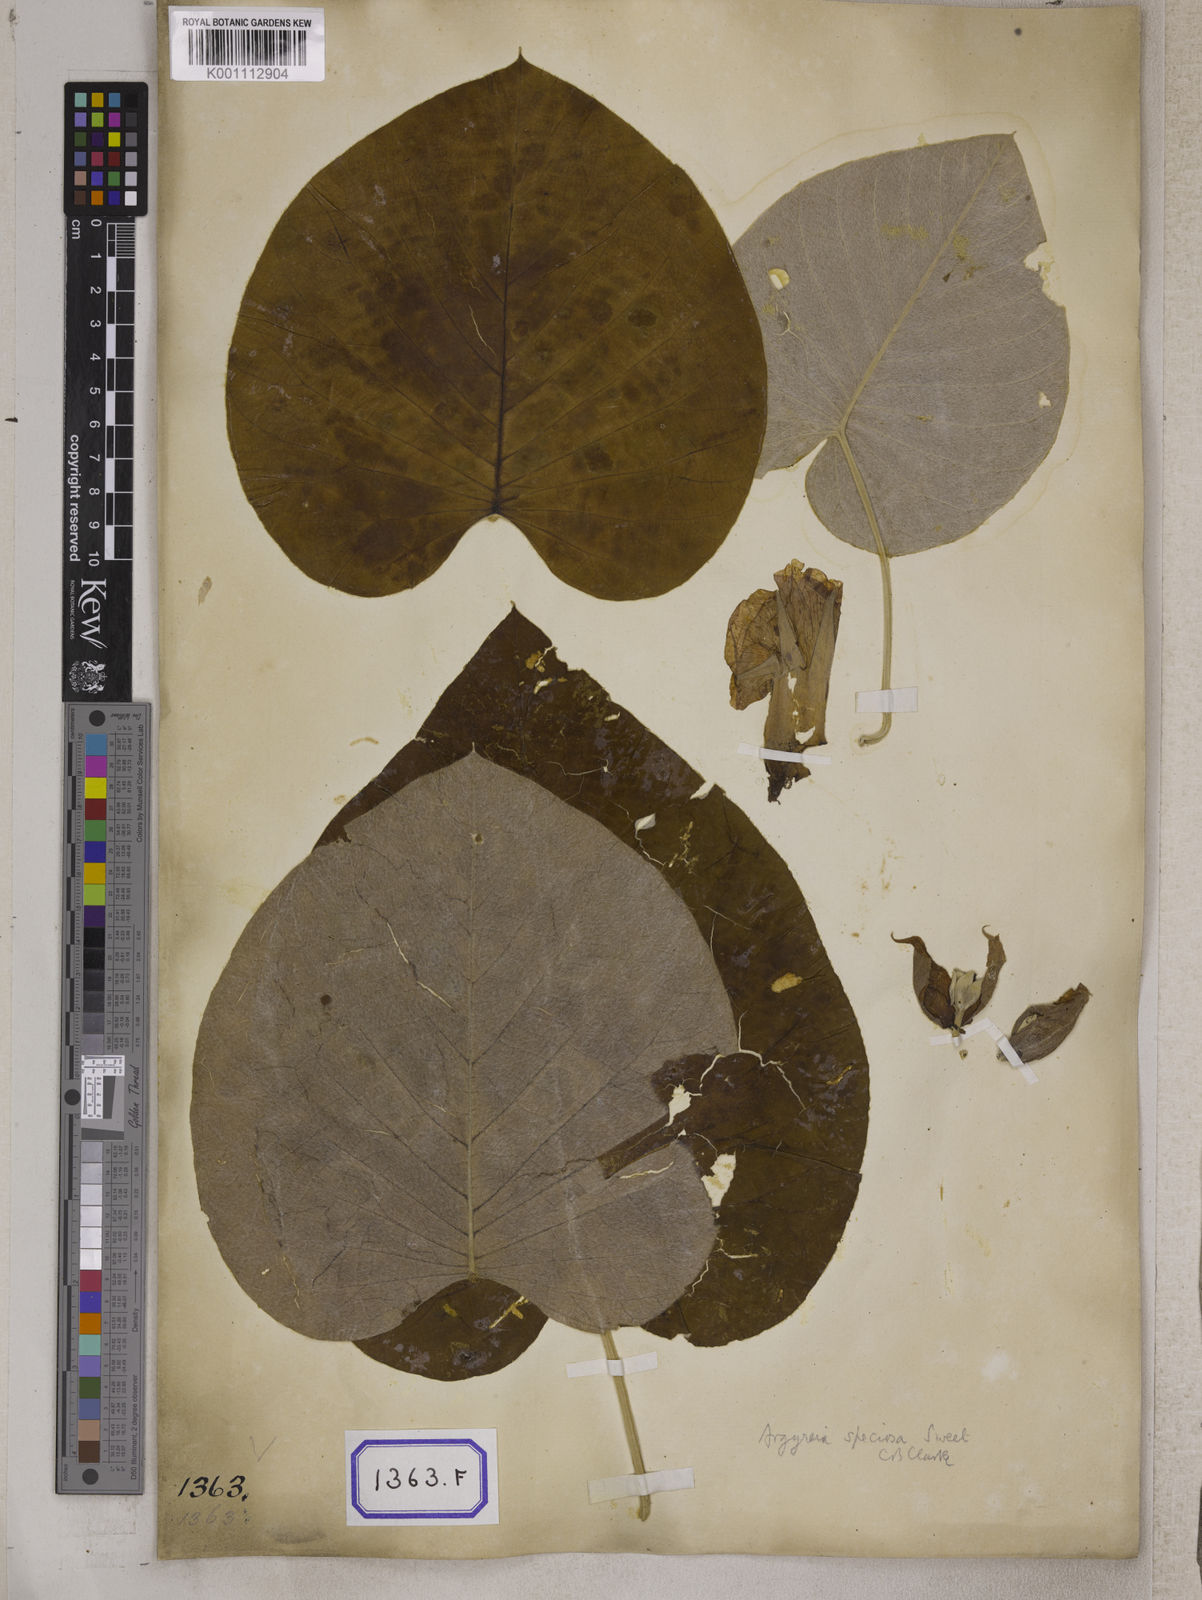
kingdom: Plantae
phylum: Tracheophyta
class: Magnoliopsida
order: Solanales
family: Convolvulaceae
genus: Convolvulus
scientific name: Convolvulus
